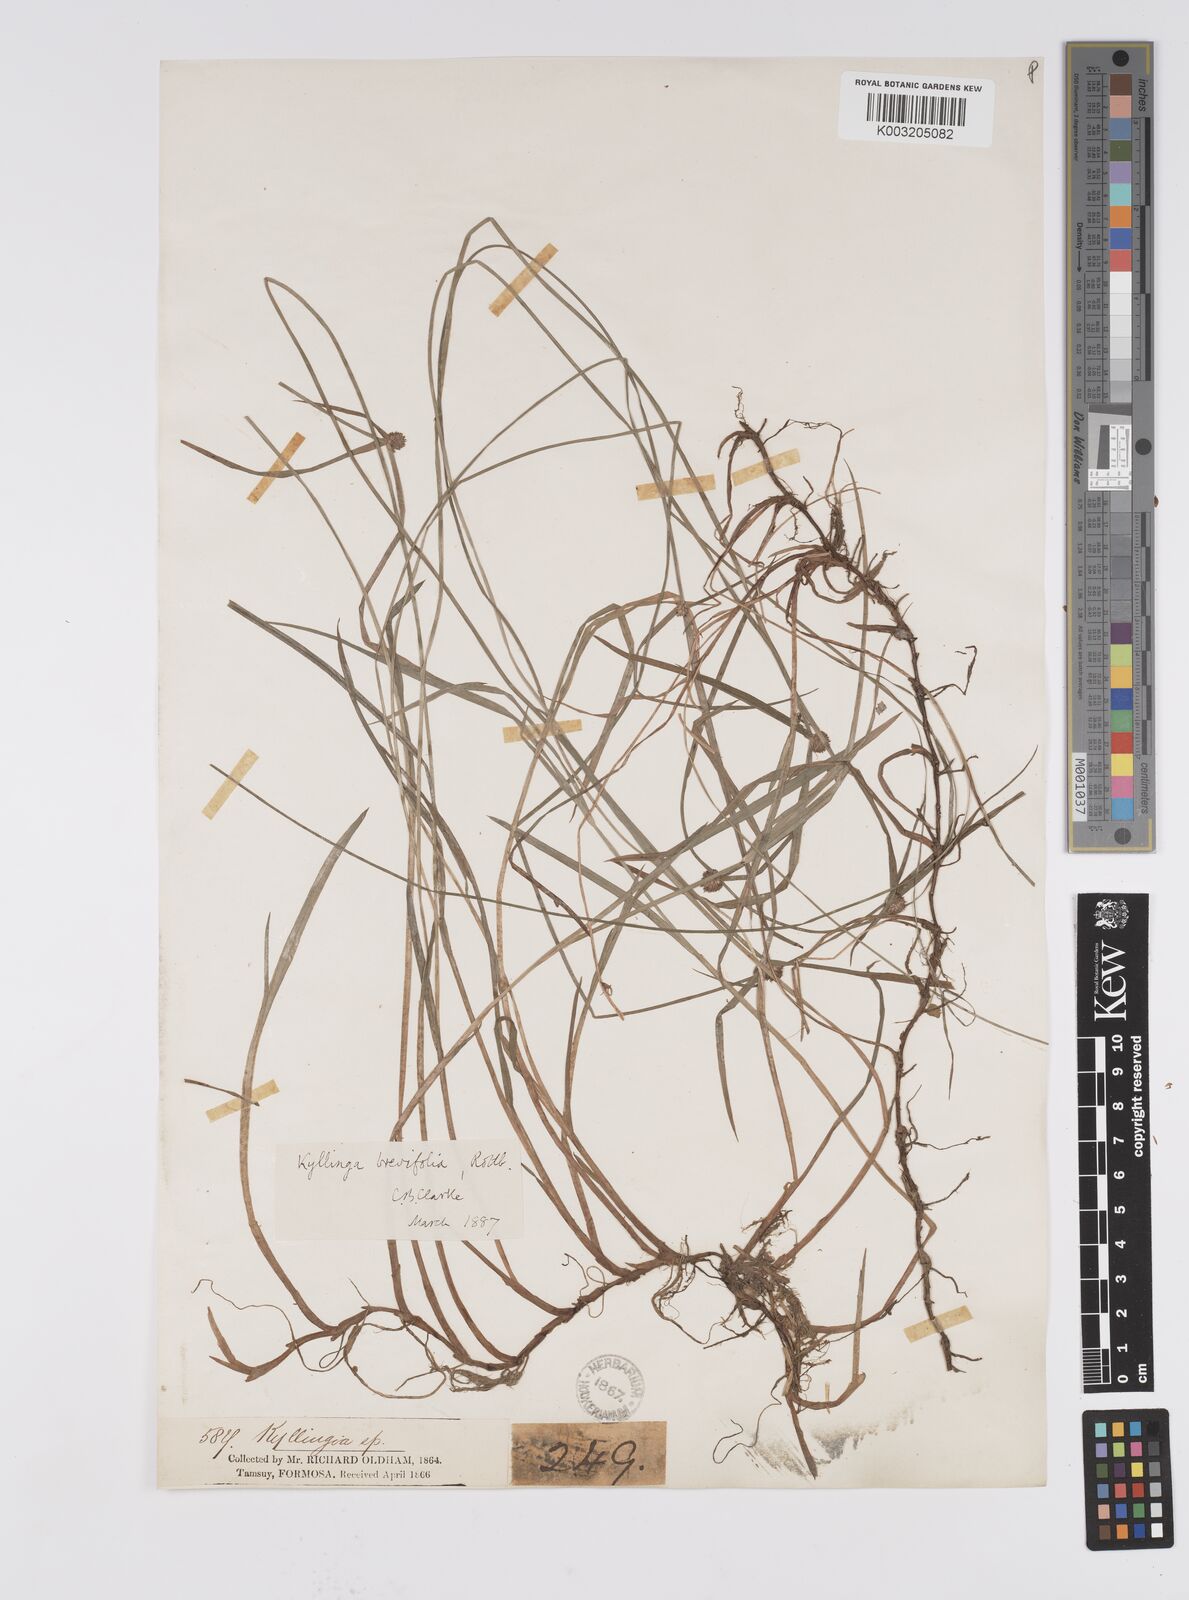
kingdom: Plantae
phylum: Tracheophyta
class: Liliopsida
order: Poales
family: Cyperaceae
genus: Cyperus
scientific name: Cyperus brevifolius
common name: Globe kyllinga
